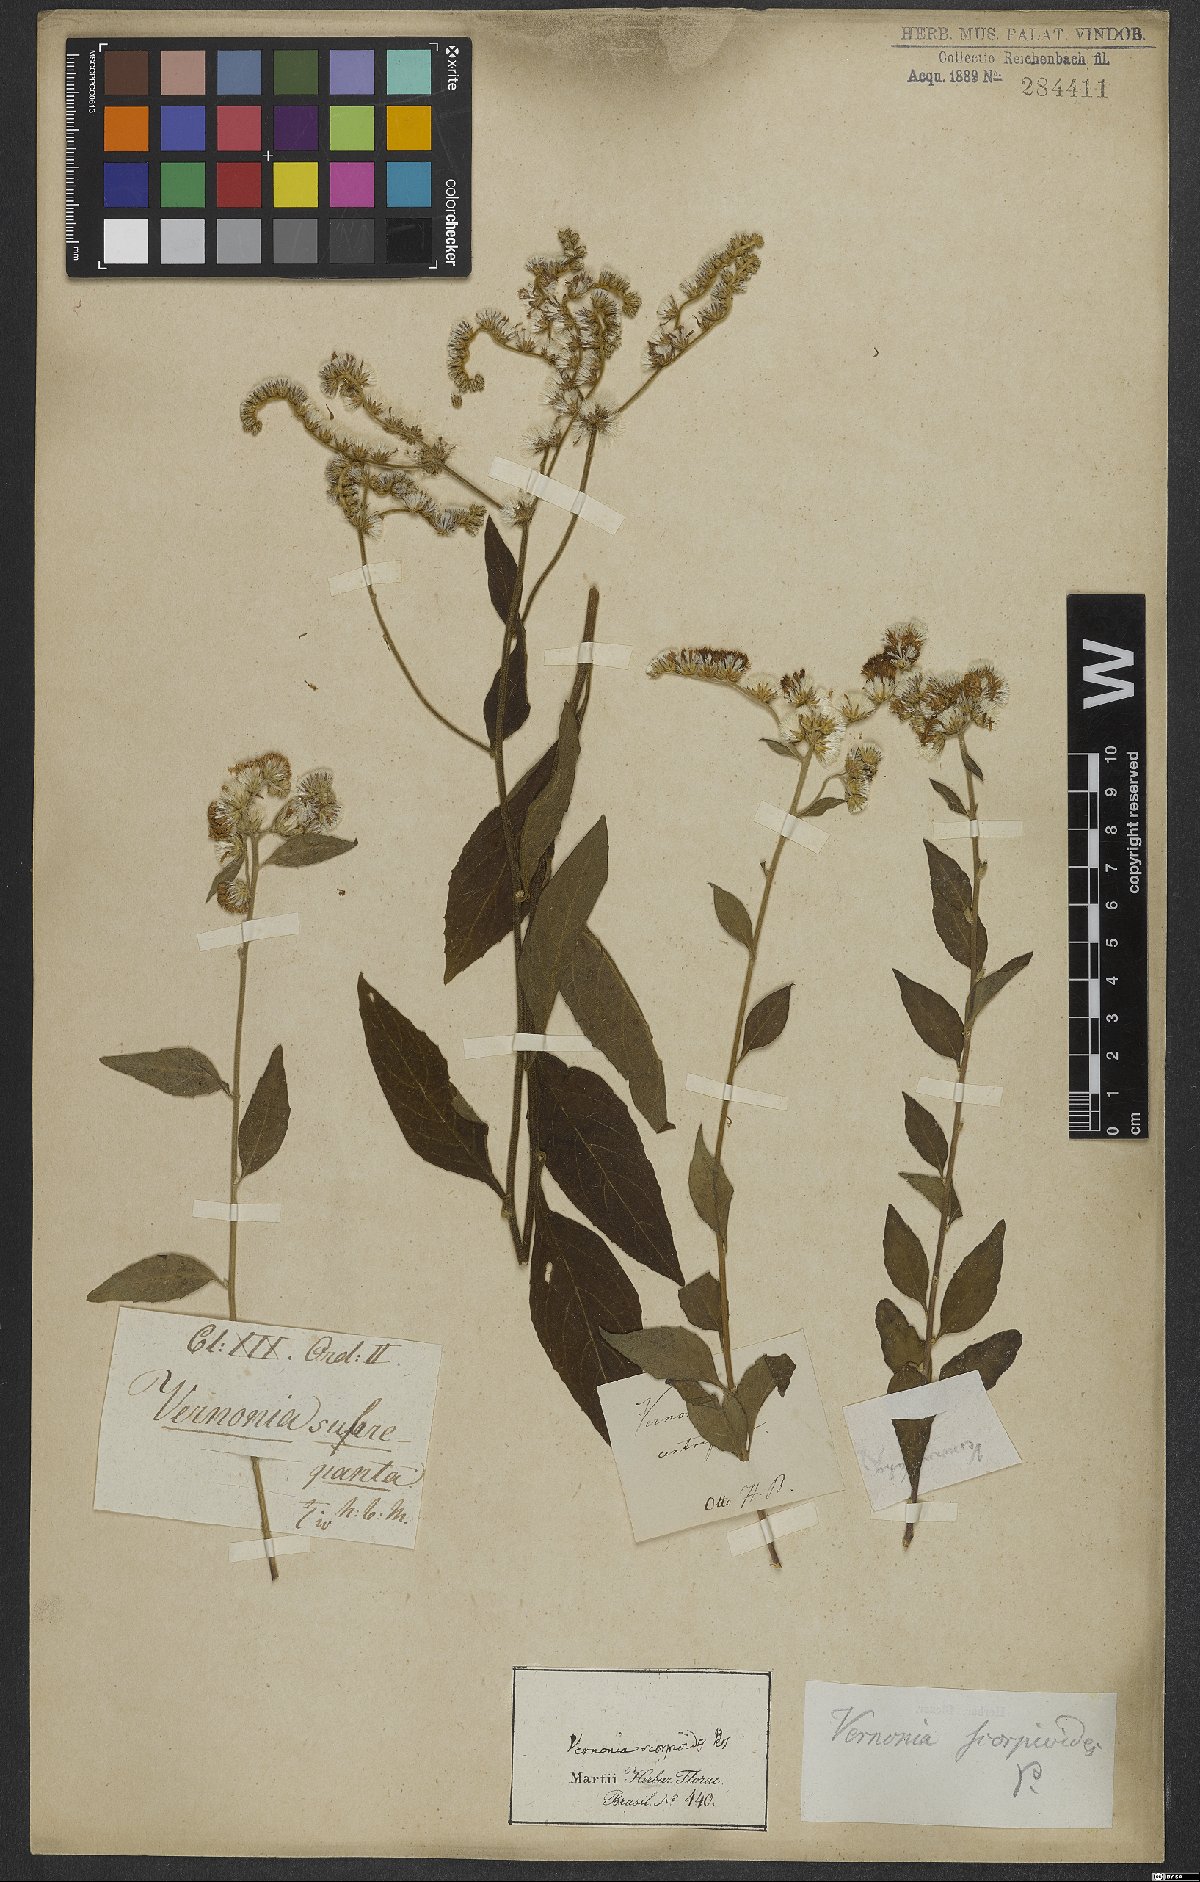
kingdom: Plantae
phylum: Tracheophyta
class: Magnoliopsida
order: Asterales
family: Asteraceae
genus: Cyrtocymura
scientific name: Cyrtocymura scorpioides
